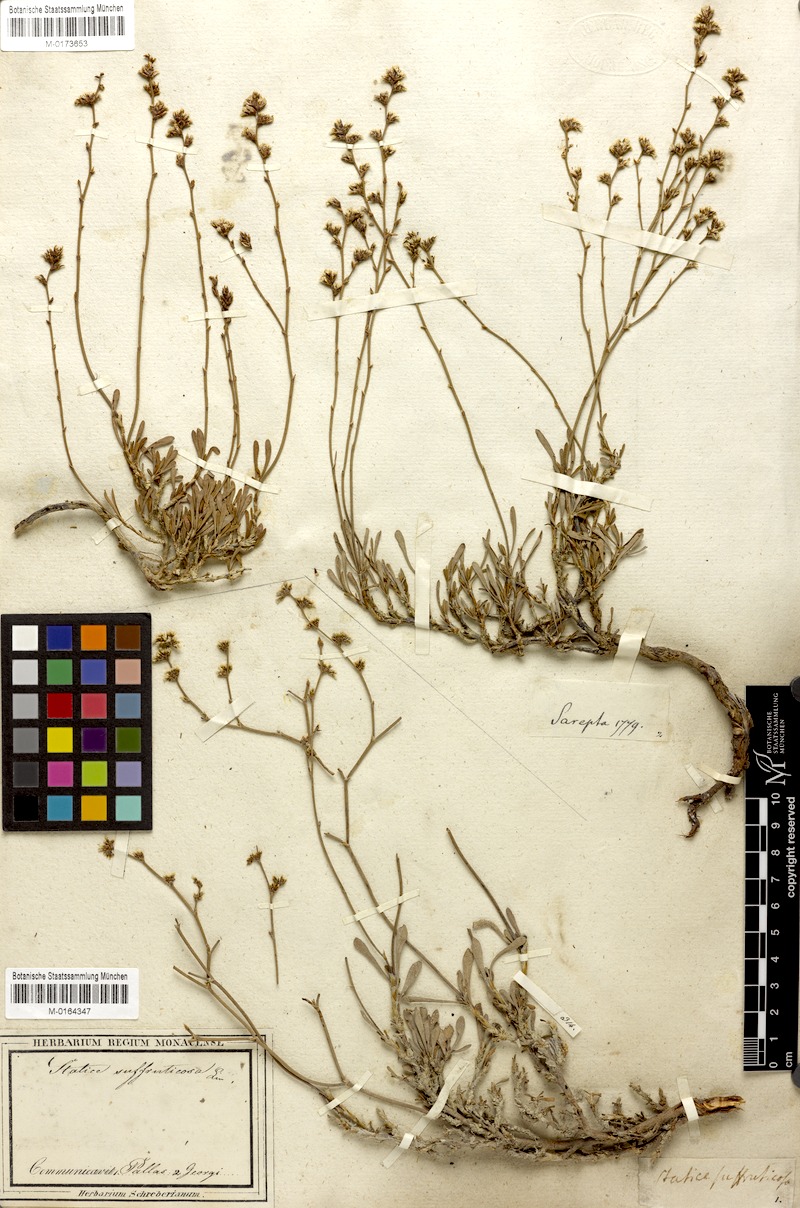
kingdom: Plantae
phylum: Tracheophyta
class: Magnoliopsida
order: Caryophyllales
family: Plumbaginaceae
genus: Limonium
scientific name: Limonium suffruticosum
